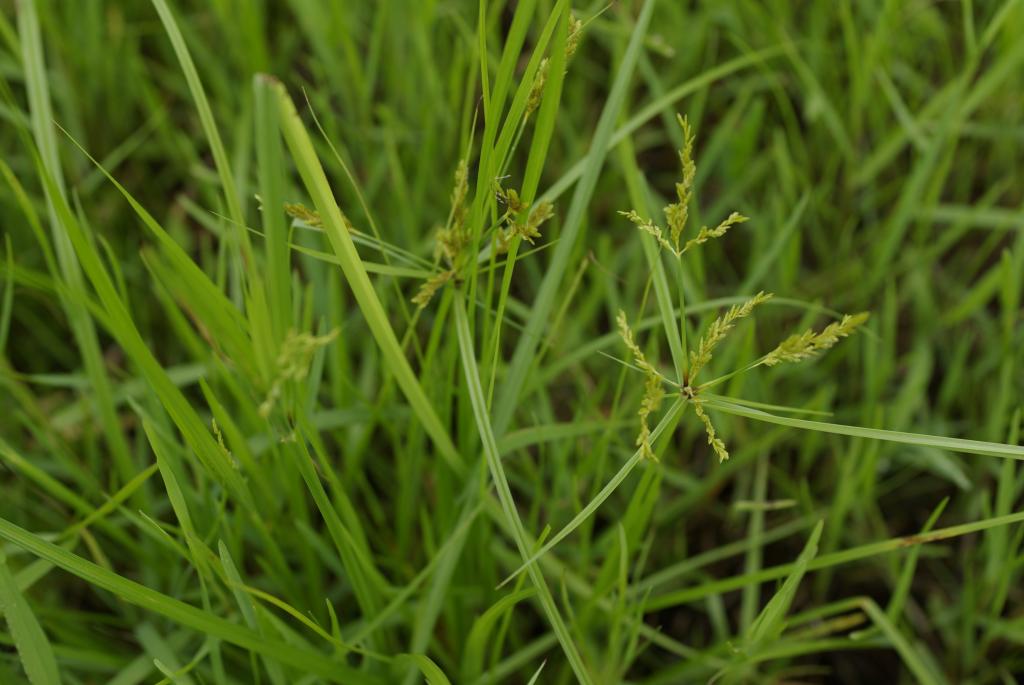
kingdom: Plantae
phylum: Tracheophyta
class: Liliopsida
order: Poales
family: Cyperaceae
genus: Cyperus
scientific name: Cyperus iria
